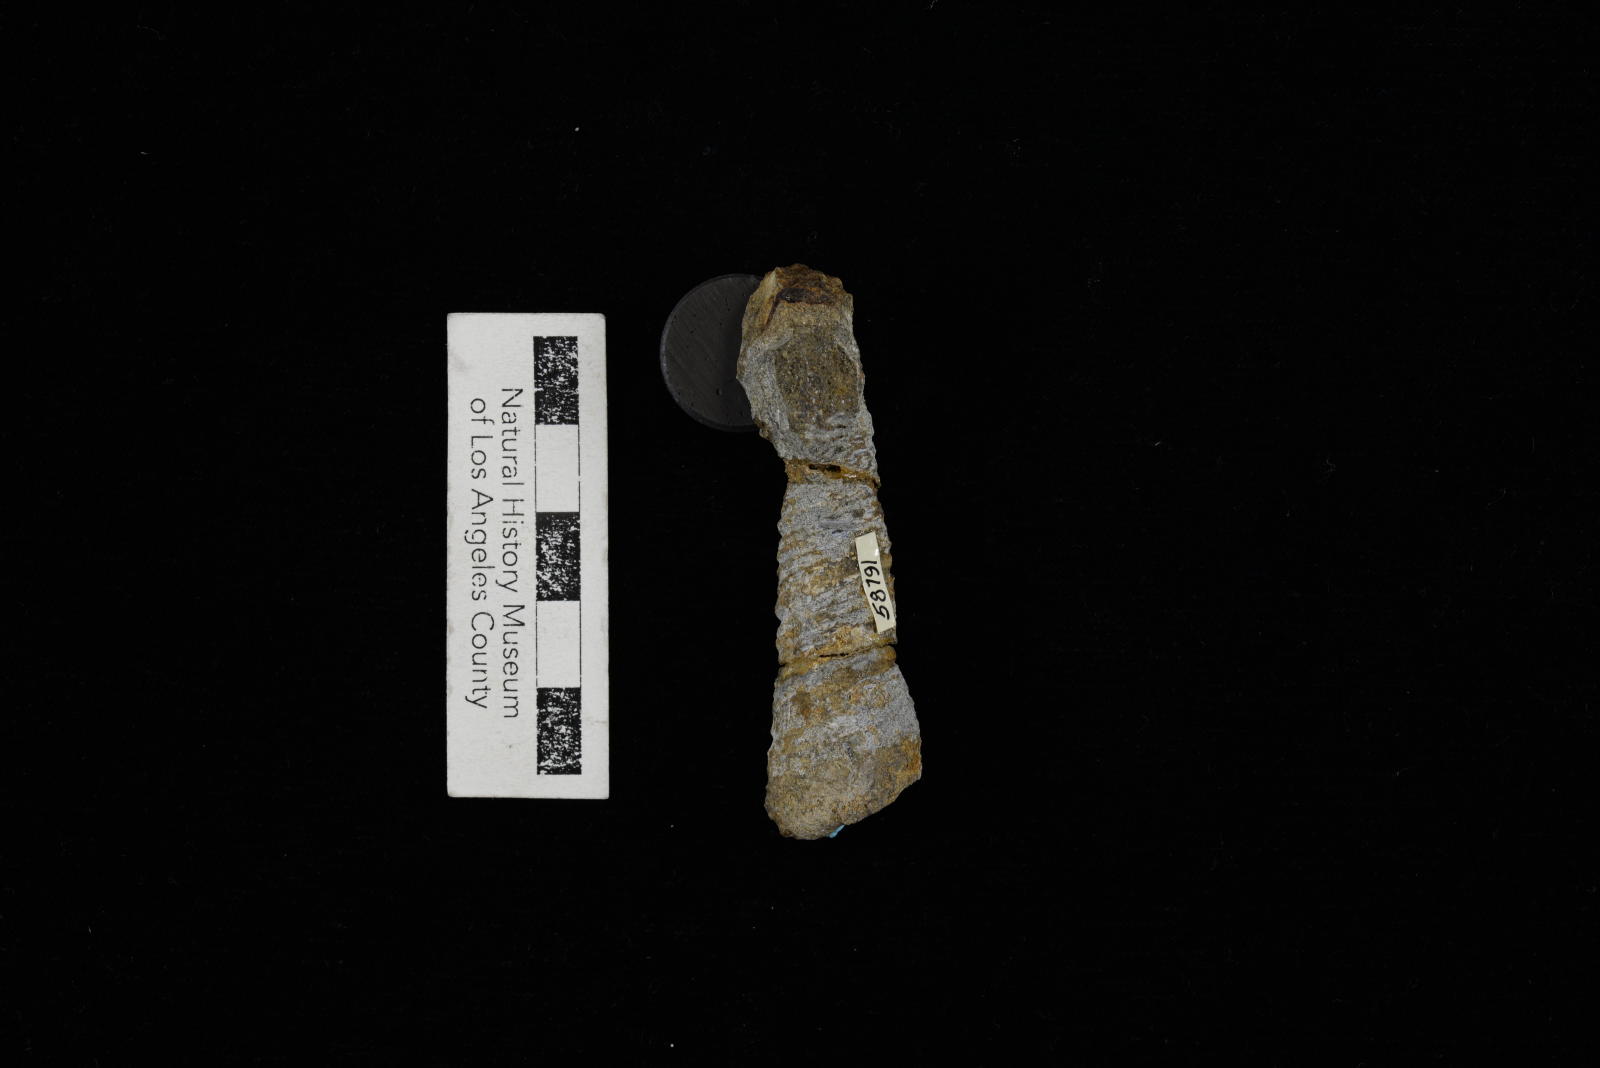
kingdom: Animalia
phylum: Mollusca
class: Gastropoda
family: Turritellidae
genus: Turritella
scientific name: Turritella
